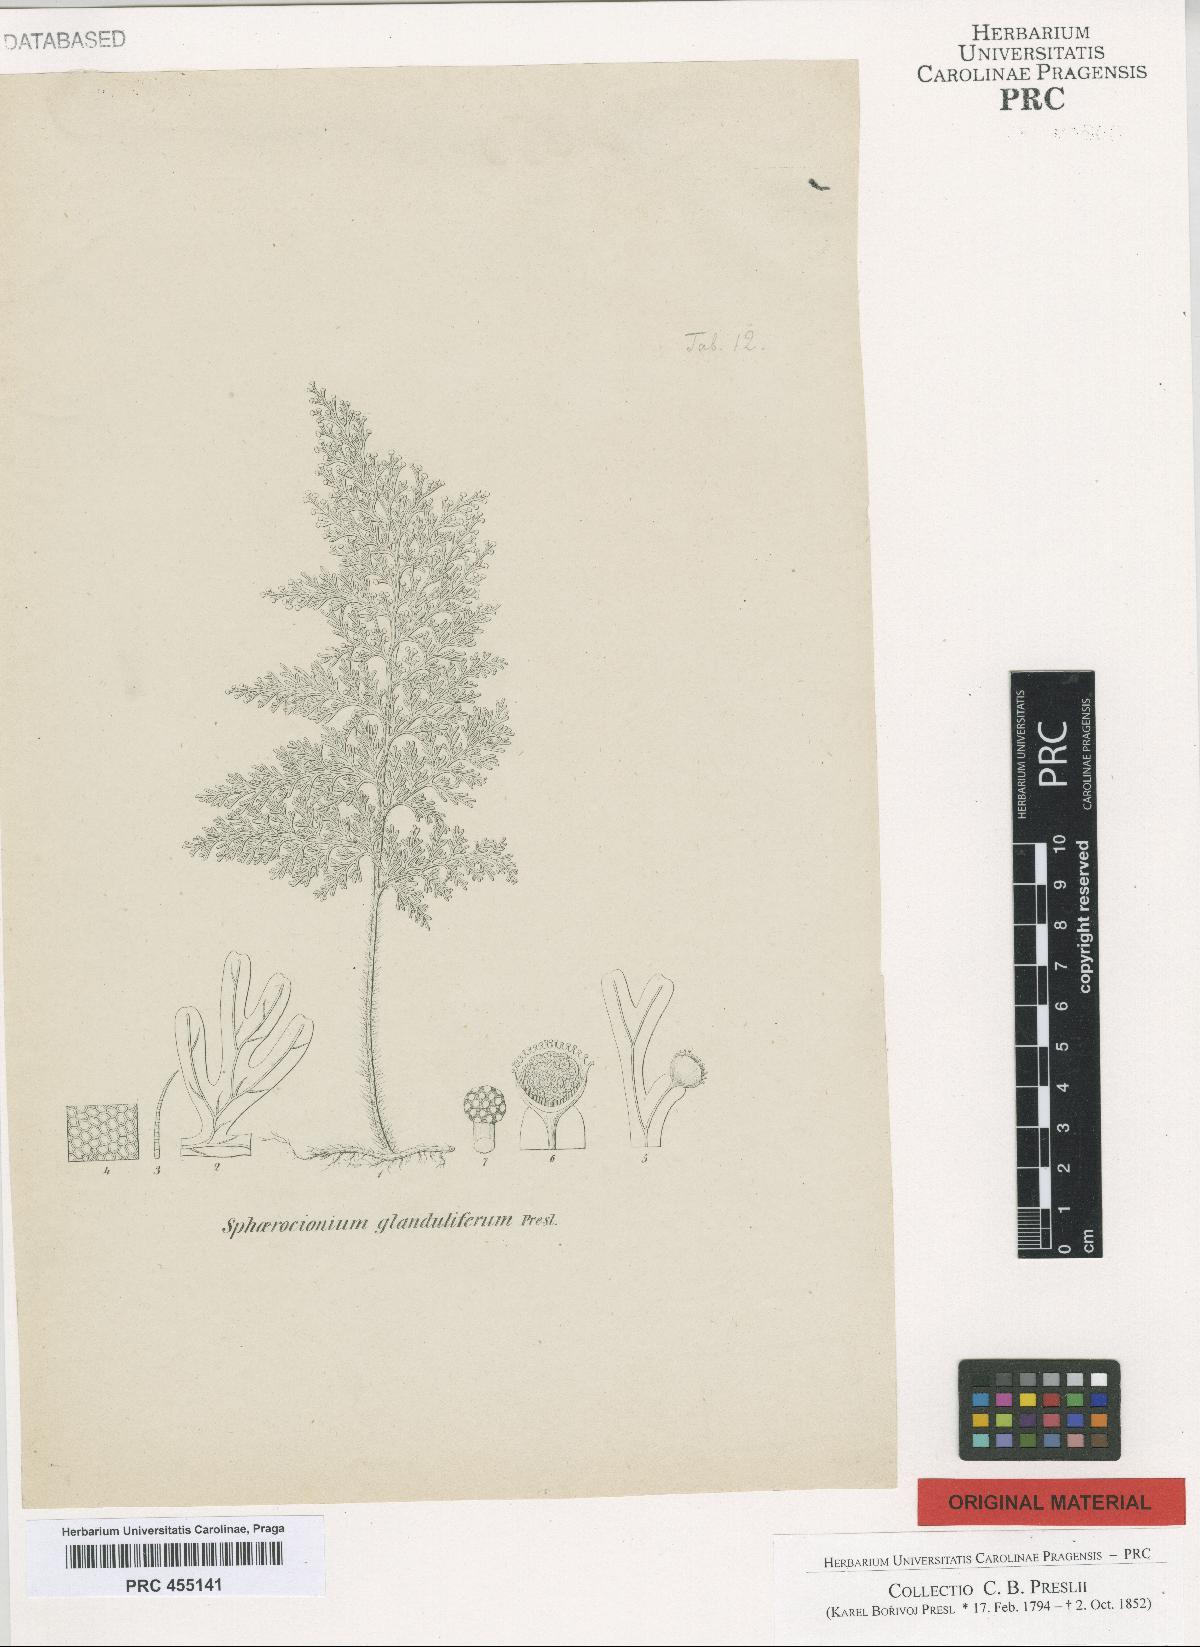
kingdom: Plantae
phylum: Tracheophyta
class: Polypodiopsida
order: Hymenophyllales
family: Hymenophyllaceae
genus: Hymenophyllum
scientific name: Hymenophyllum
